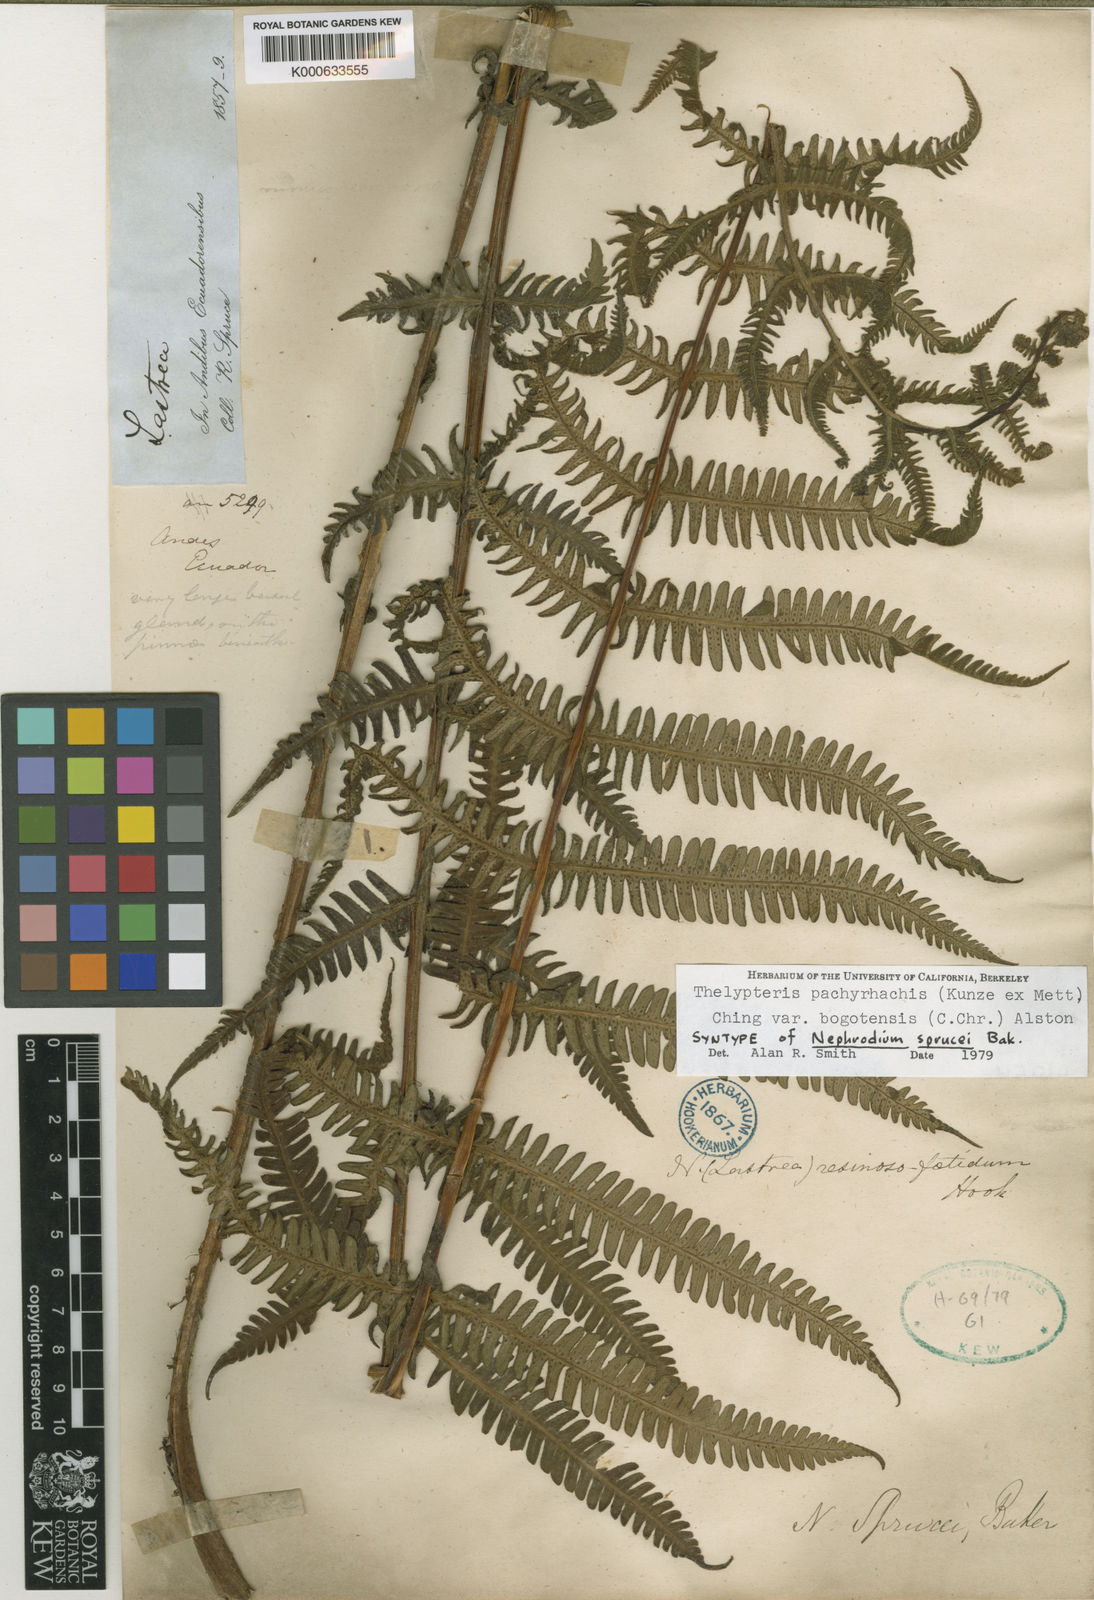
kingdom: Plantae
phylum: Tracheophyta
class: Polypodiopsida
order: Polypodiales
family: Thelypteridaceae
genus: Amauropelta
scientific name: Amauropelta pachyrhachis
